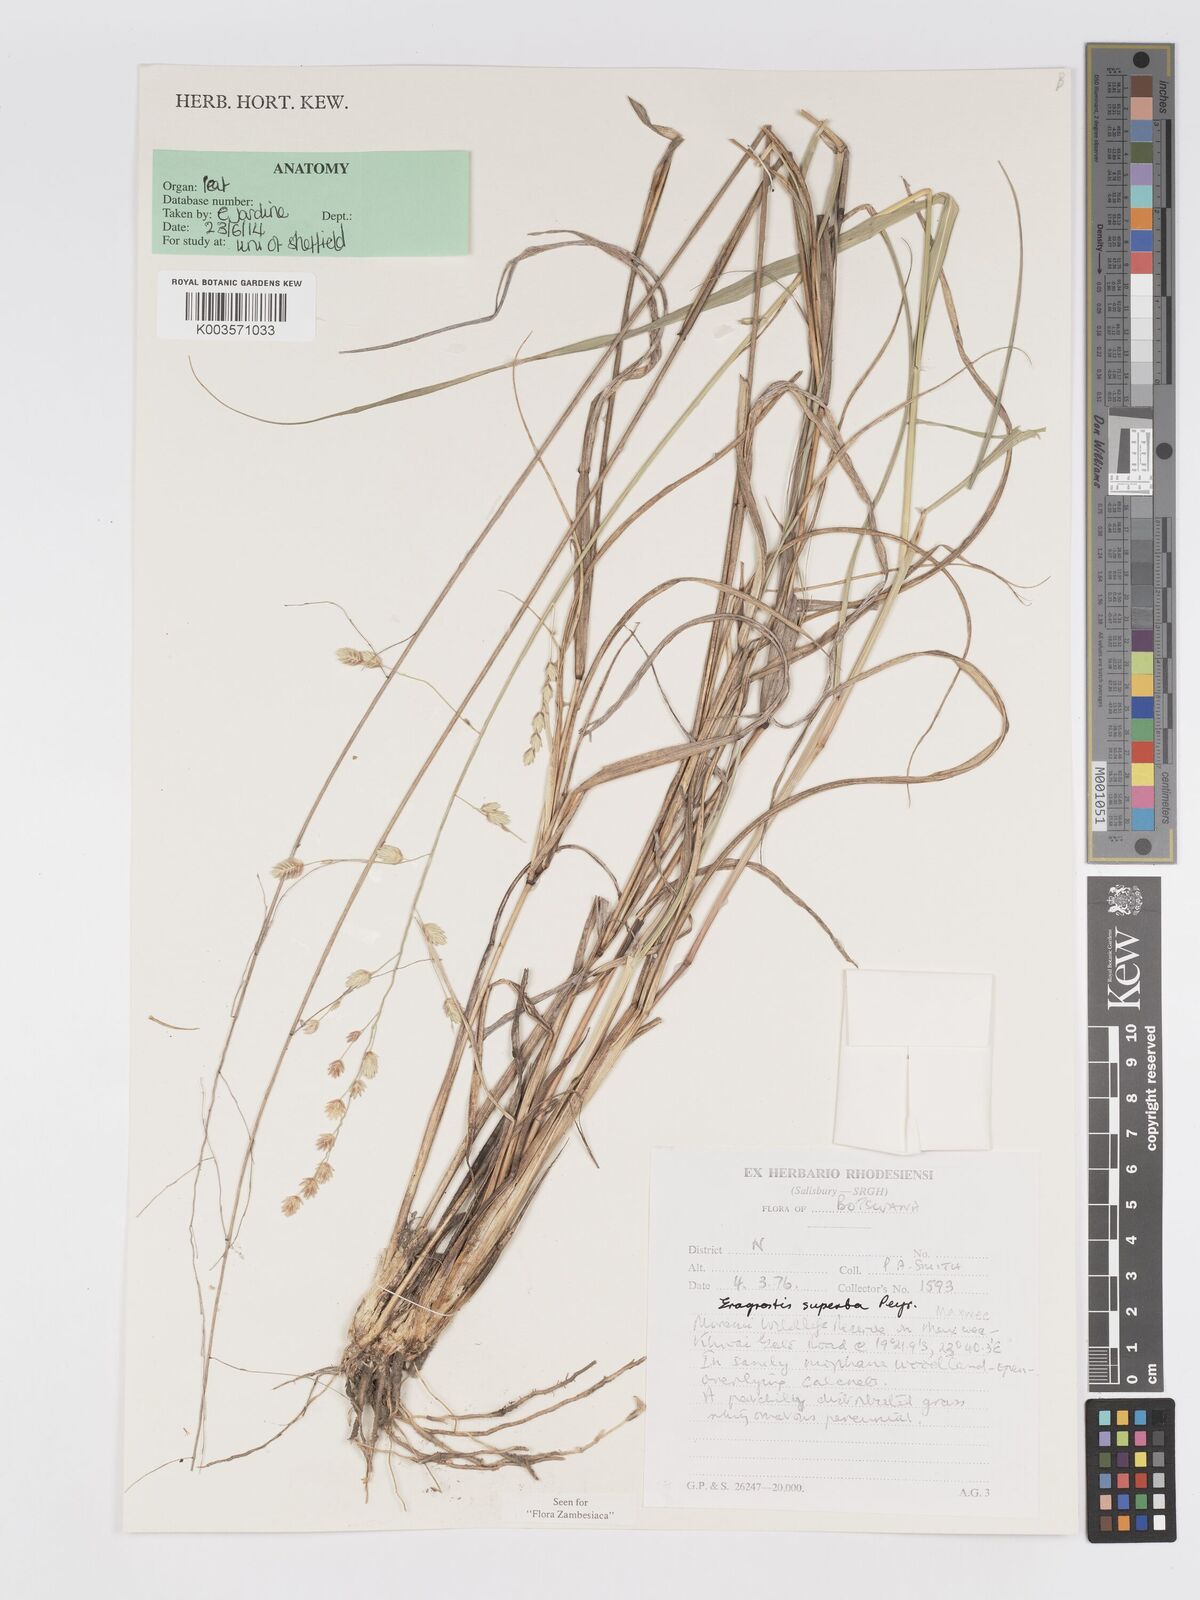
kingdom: Plantae
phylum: Tracheophyta
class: Liliopsida
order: Poales
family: Poaceae
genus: Eragrostis
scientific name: Eragrostis superba
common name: Wilman lovegrass
